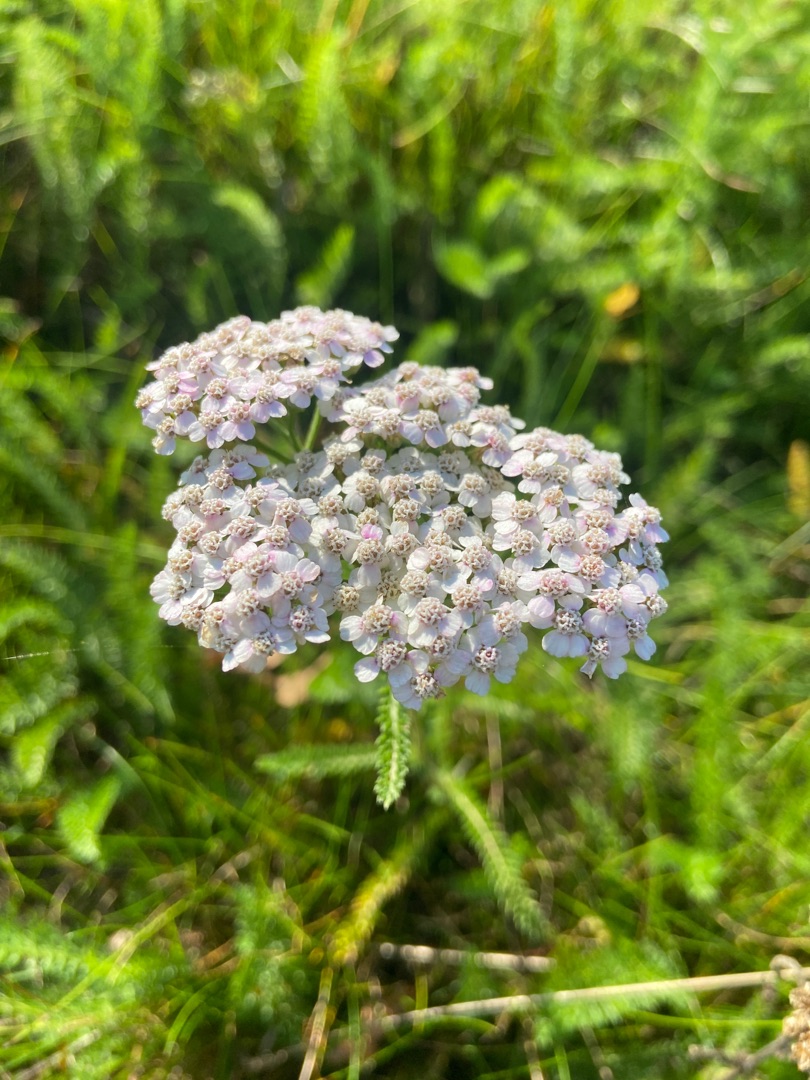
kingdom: Plantae
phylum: Tracheophyta
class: Magnoliopsida
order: Asterales
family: Asteraceae
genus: Achillea
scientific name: Achillea millefolium
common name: Almindelig røllike
